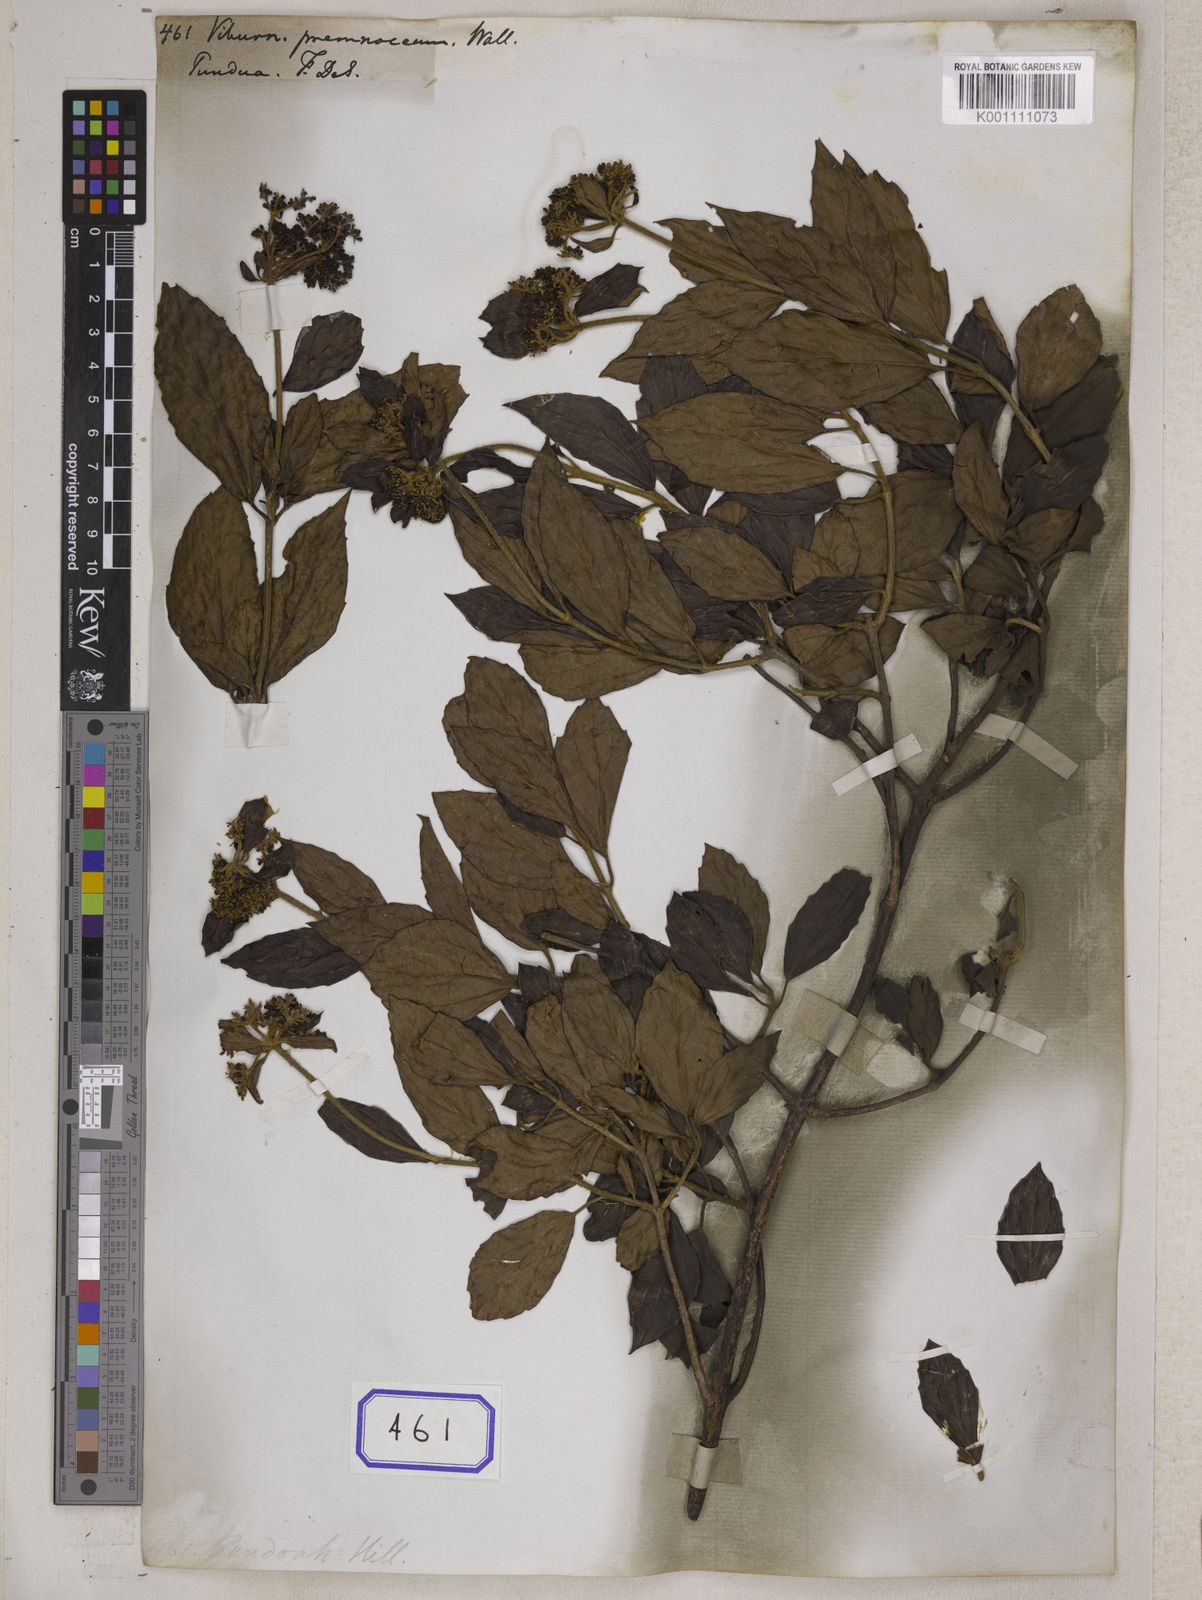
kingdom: Plantae
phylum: Tracheophyta
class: Magnoliopsida
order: Dipsacales
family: Viburnaceae
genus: Viburnum
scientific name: Viburnum
